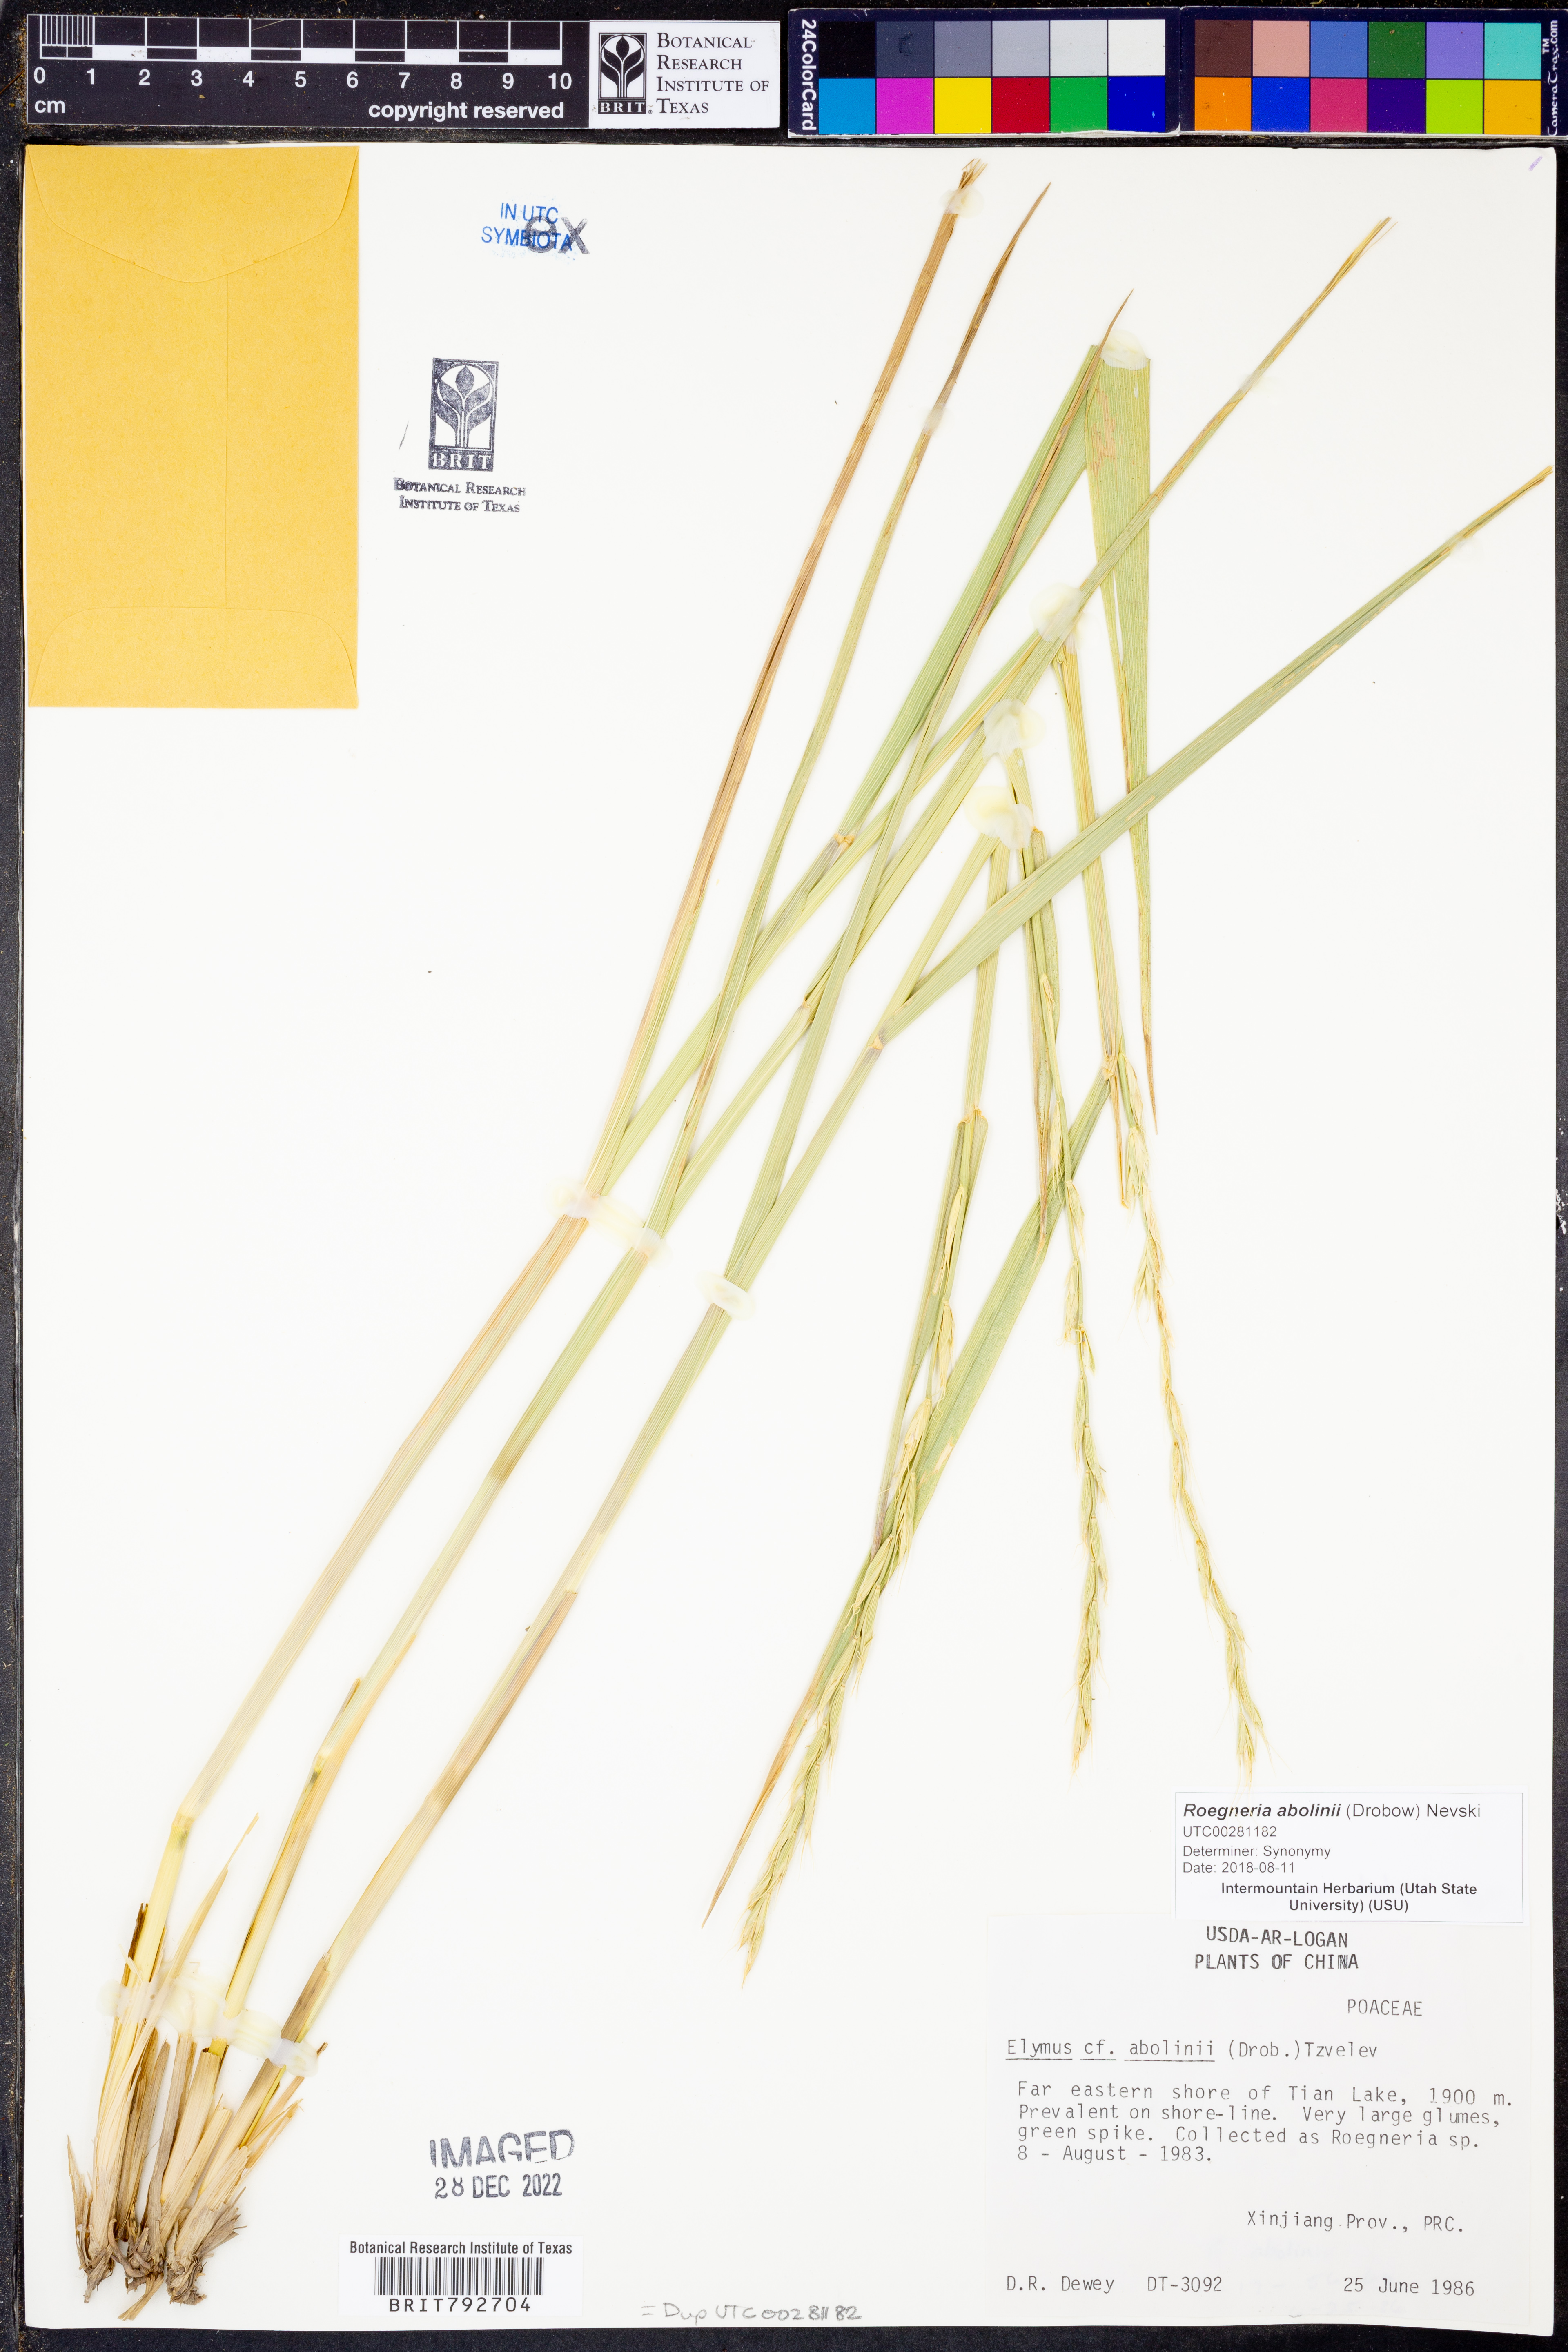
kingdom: Plantae
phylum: Tracheophyta
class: Liliopsida
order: Poales
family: Poaceae
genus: Elymus
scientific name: Elymus abolinii
